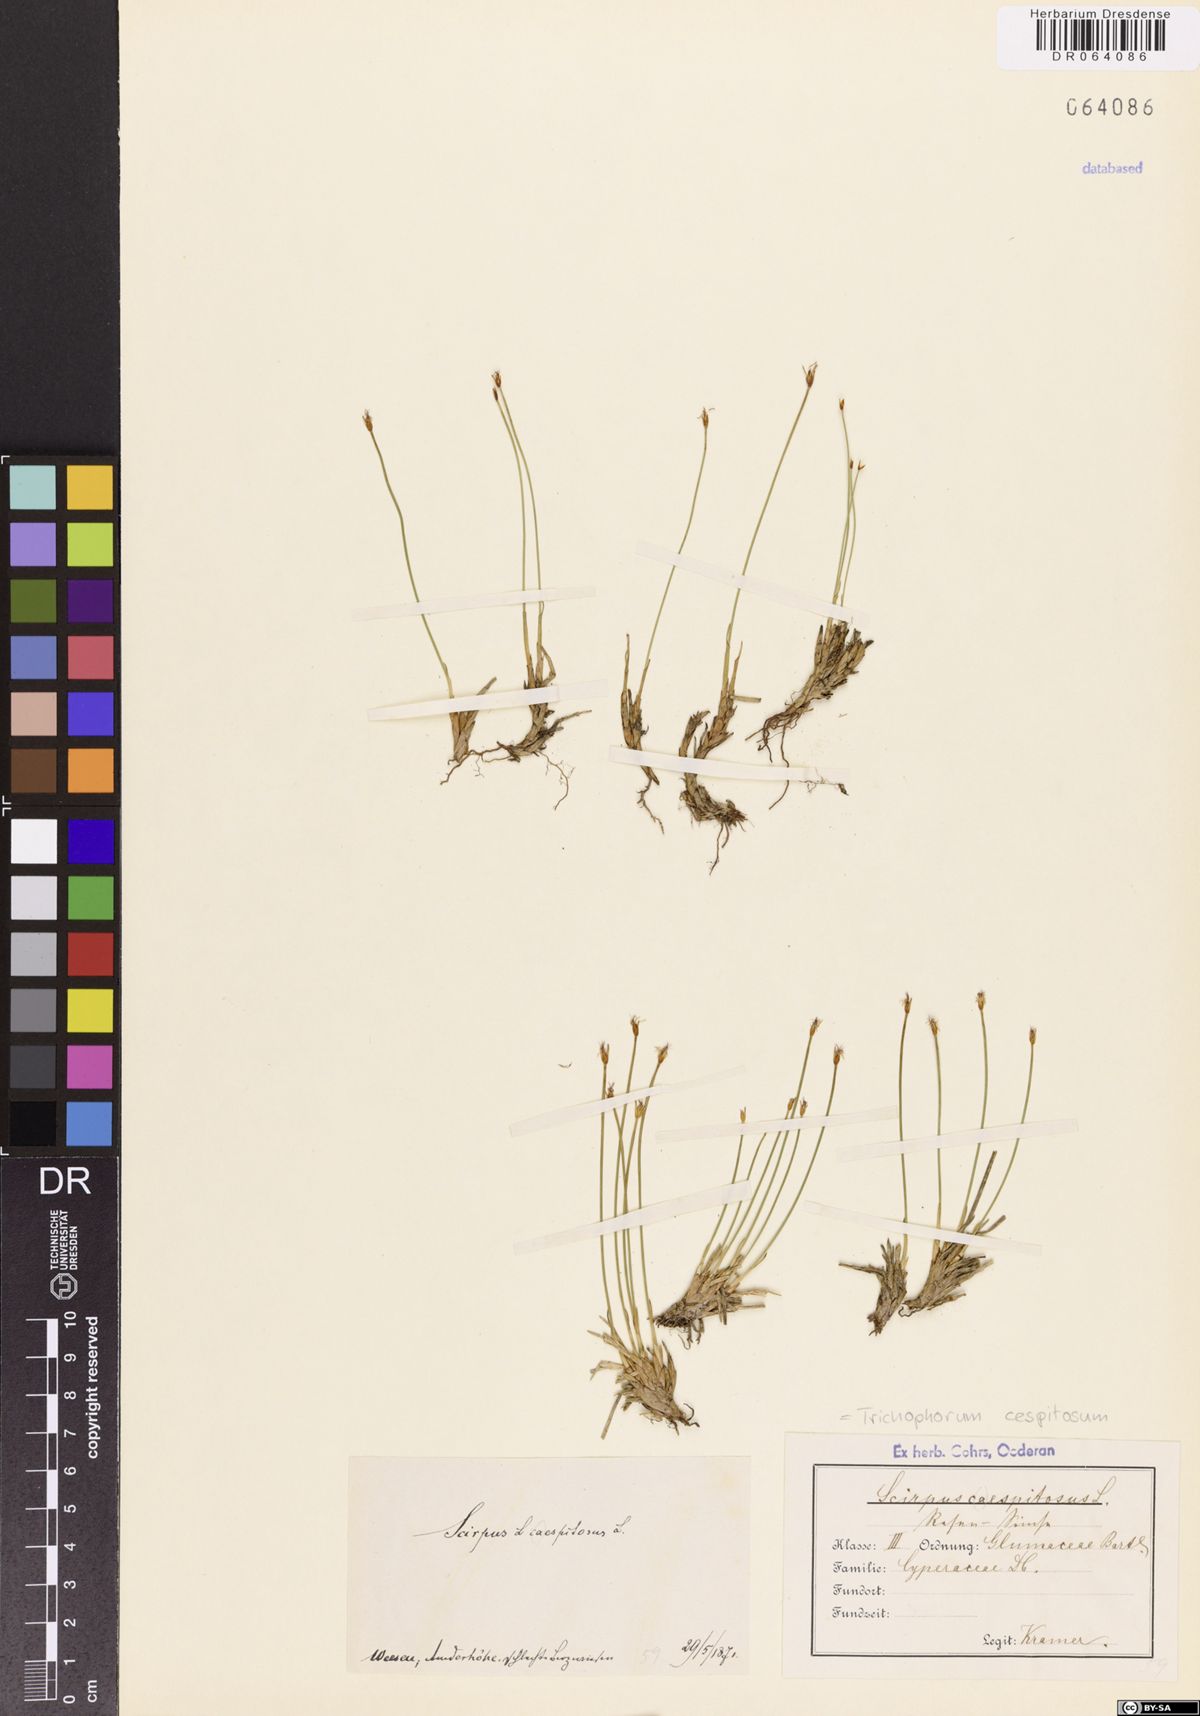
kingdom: Plantae
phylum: Tracheophyta
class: Liliopsida
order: Poales
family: Cyperaceae
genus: Trichophorum
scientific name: Trichophorum cespitosum
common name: Cespitose bulrush
